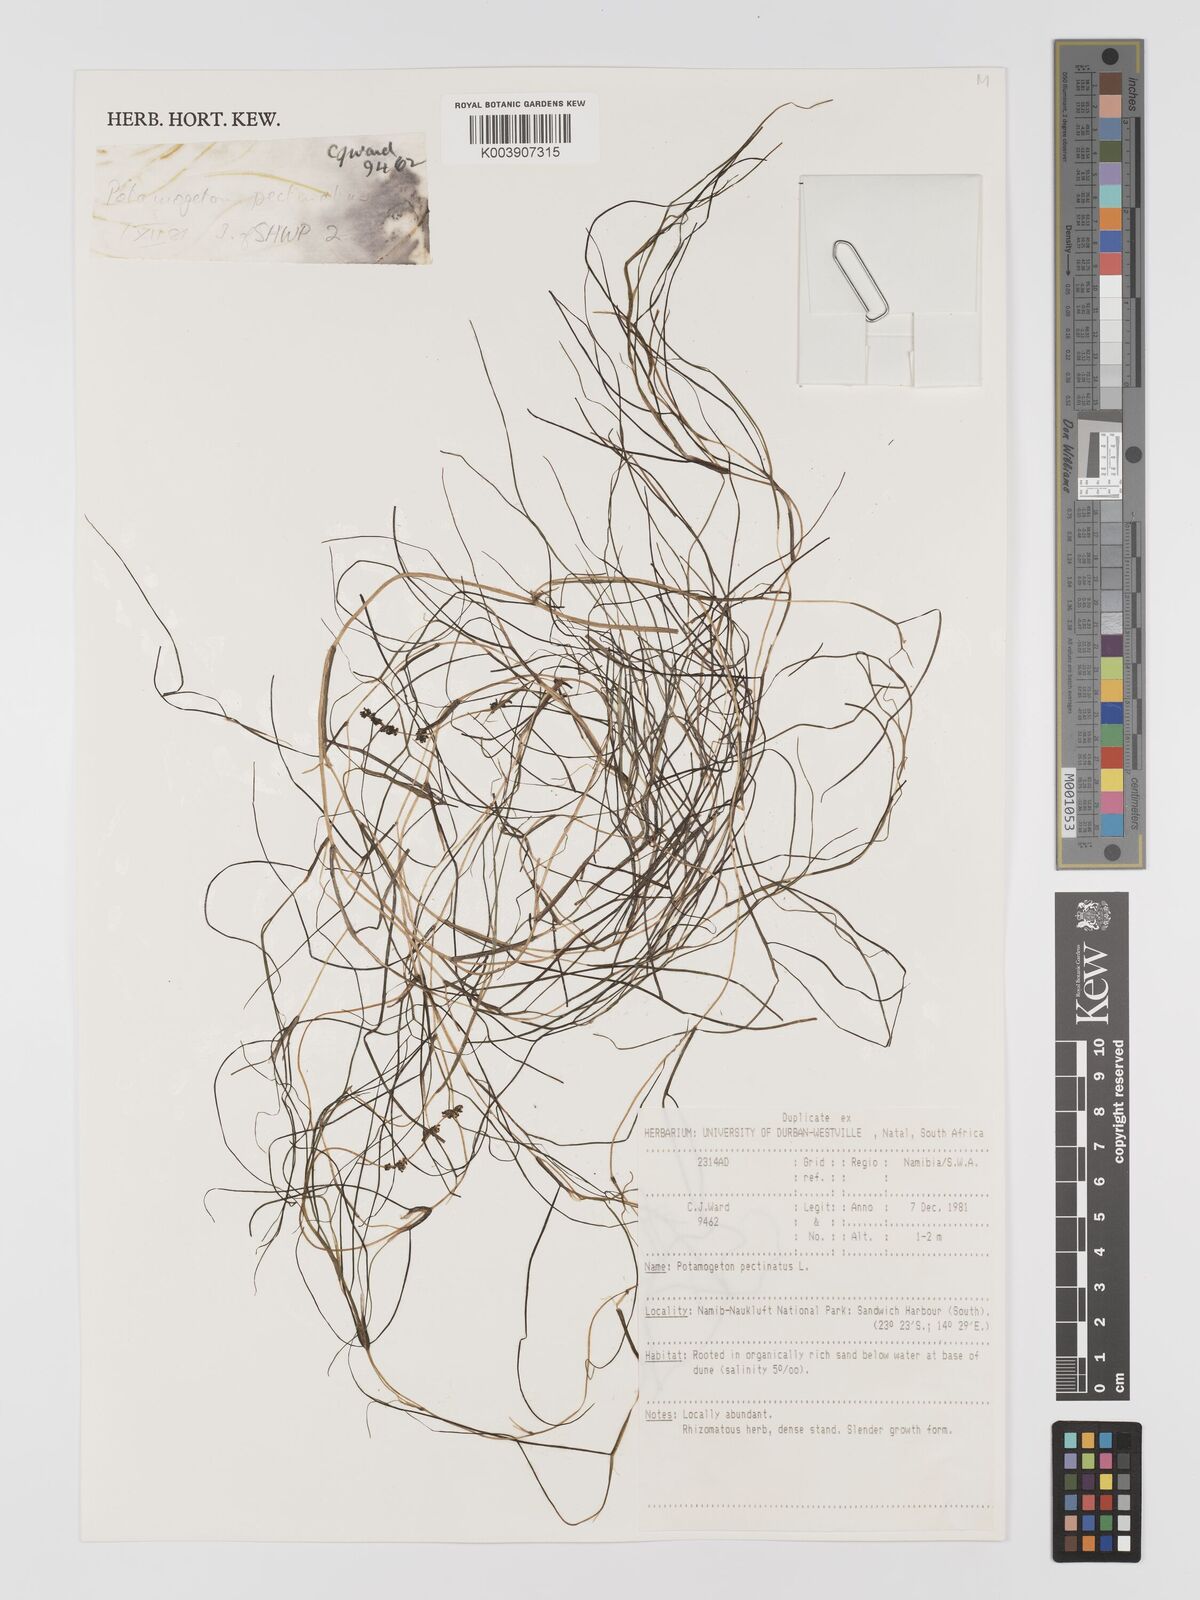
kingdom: Plantae
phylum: Tracheophyta
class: Liliopsida
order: Alismatales
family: Potamogetonaceae
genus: Stuckenia
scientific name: Stuckenia pectinata
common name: Sago pondweed
